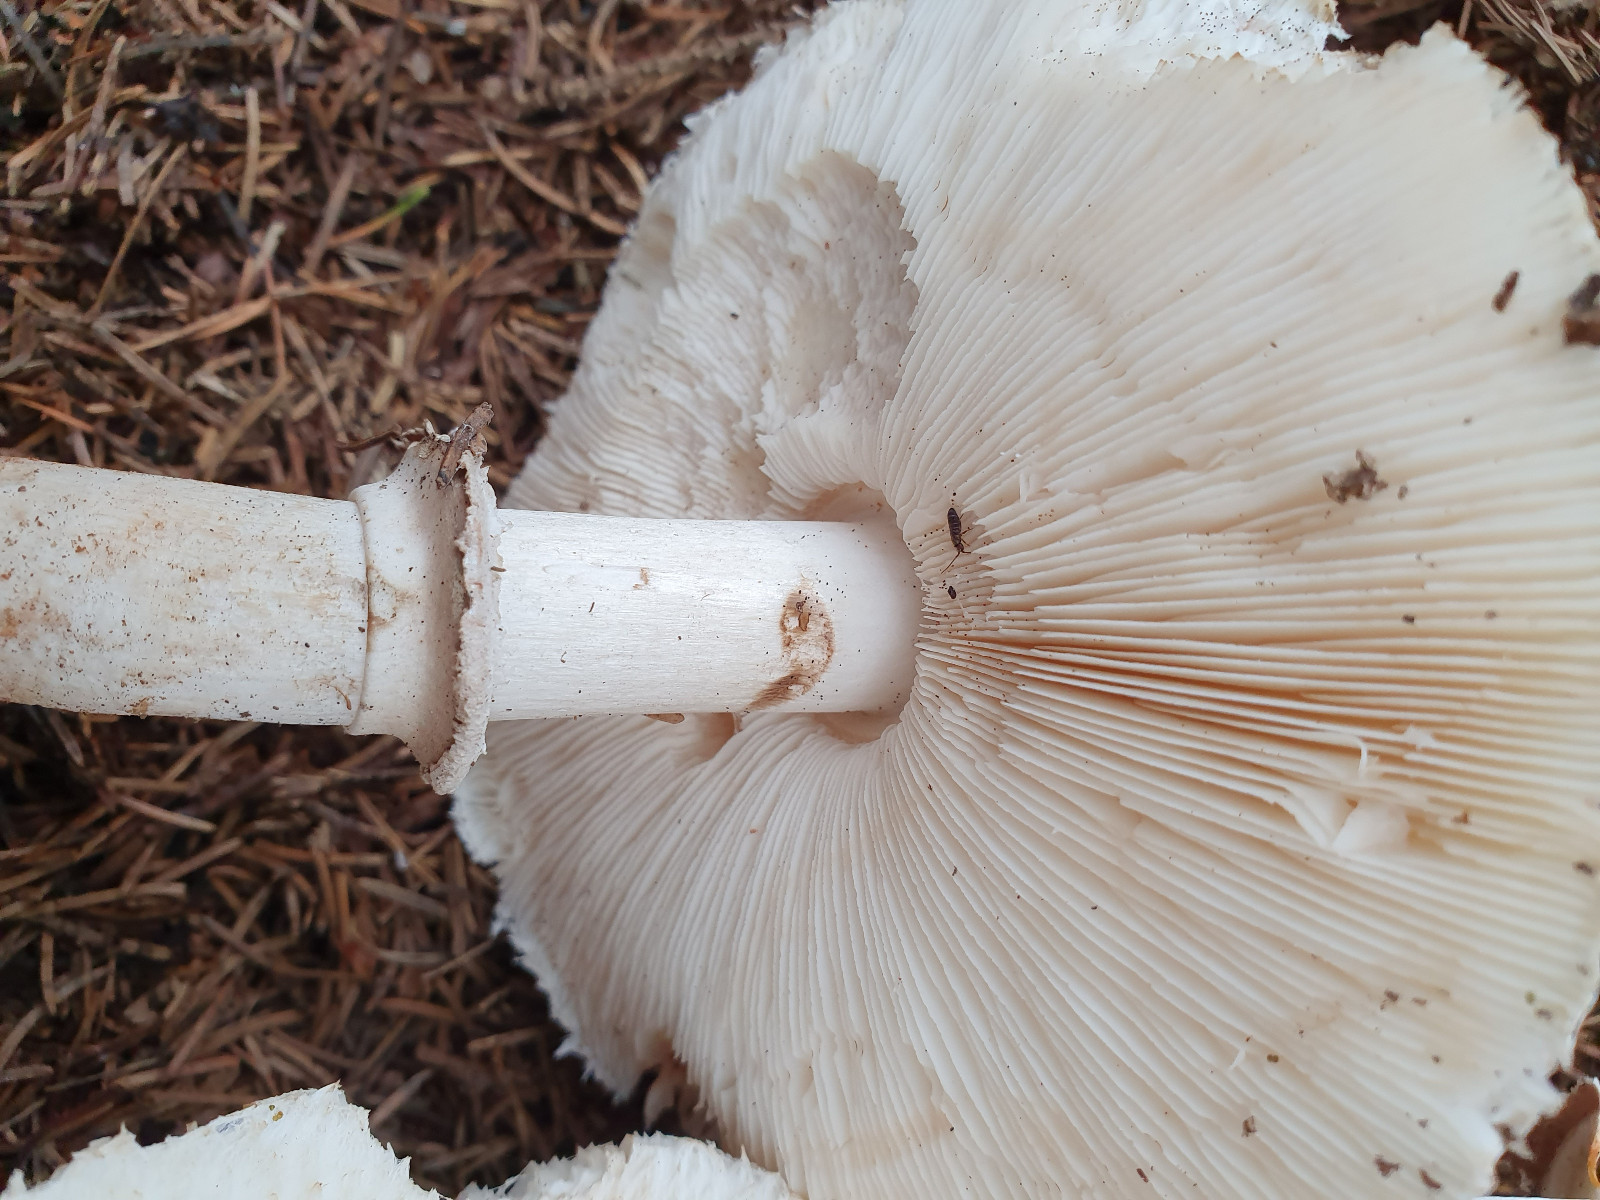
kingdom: Fungi
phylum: Basidiomycota
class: Agaricomycetes
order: Agaricales
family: Agaricaceae
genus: Chlorophyllum
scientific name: Chlorophyllum brunneum
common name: giftig rabarberhat
